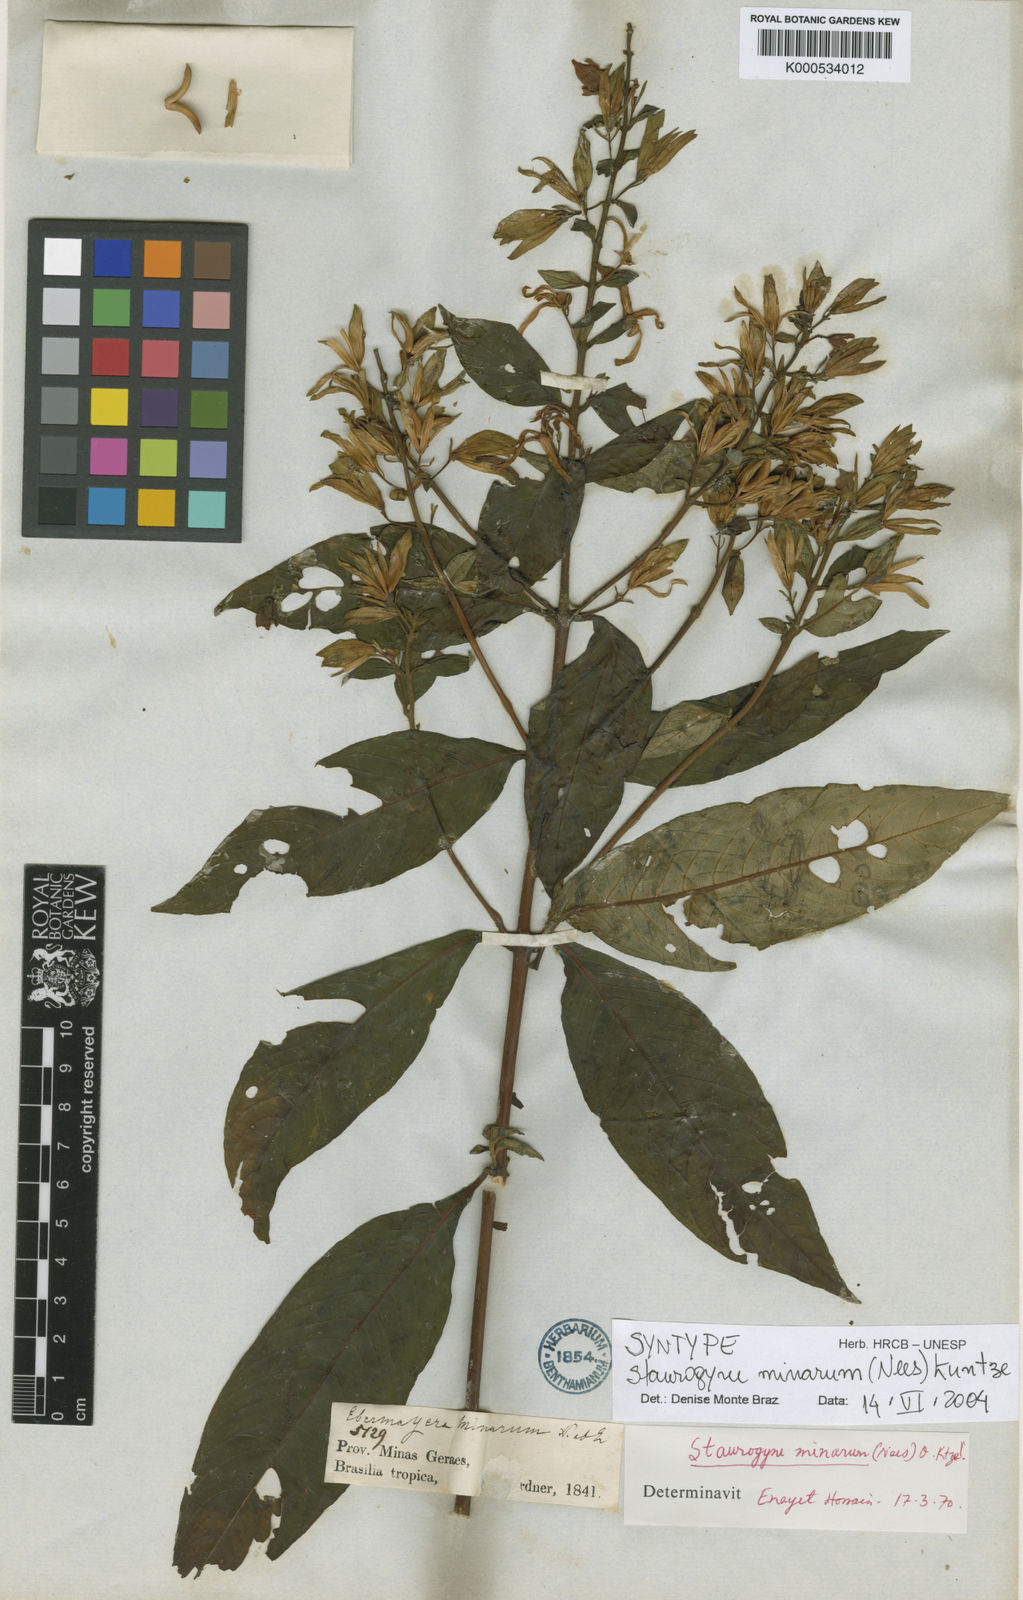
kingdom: Plantae
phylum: Tracheophyta
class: Magnoliopsida
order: Lamiales
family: Acanthaceae
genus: Staurogyne
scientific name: Staurogyne minarum
